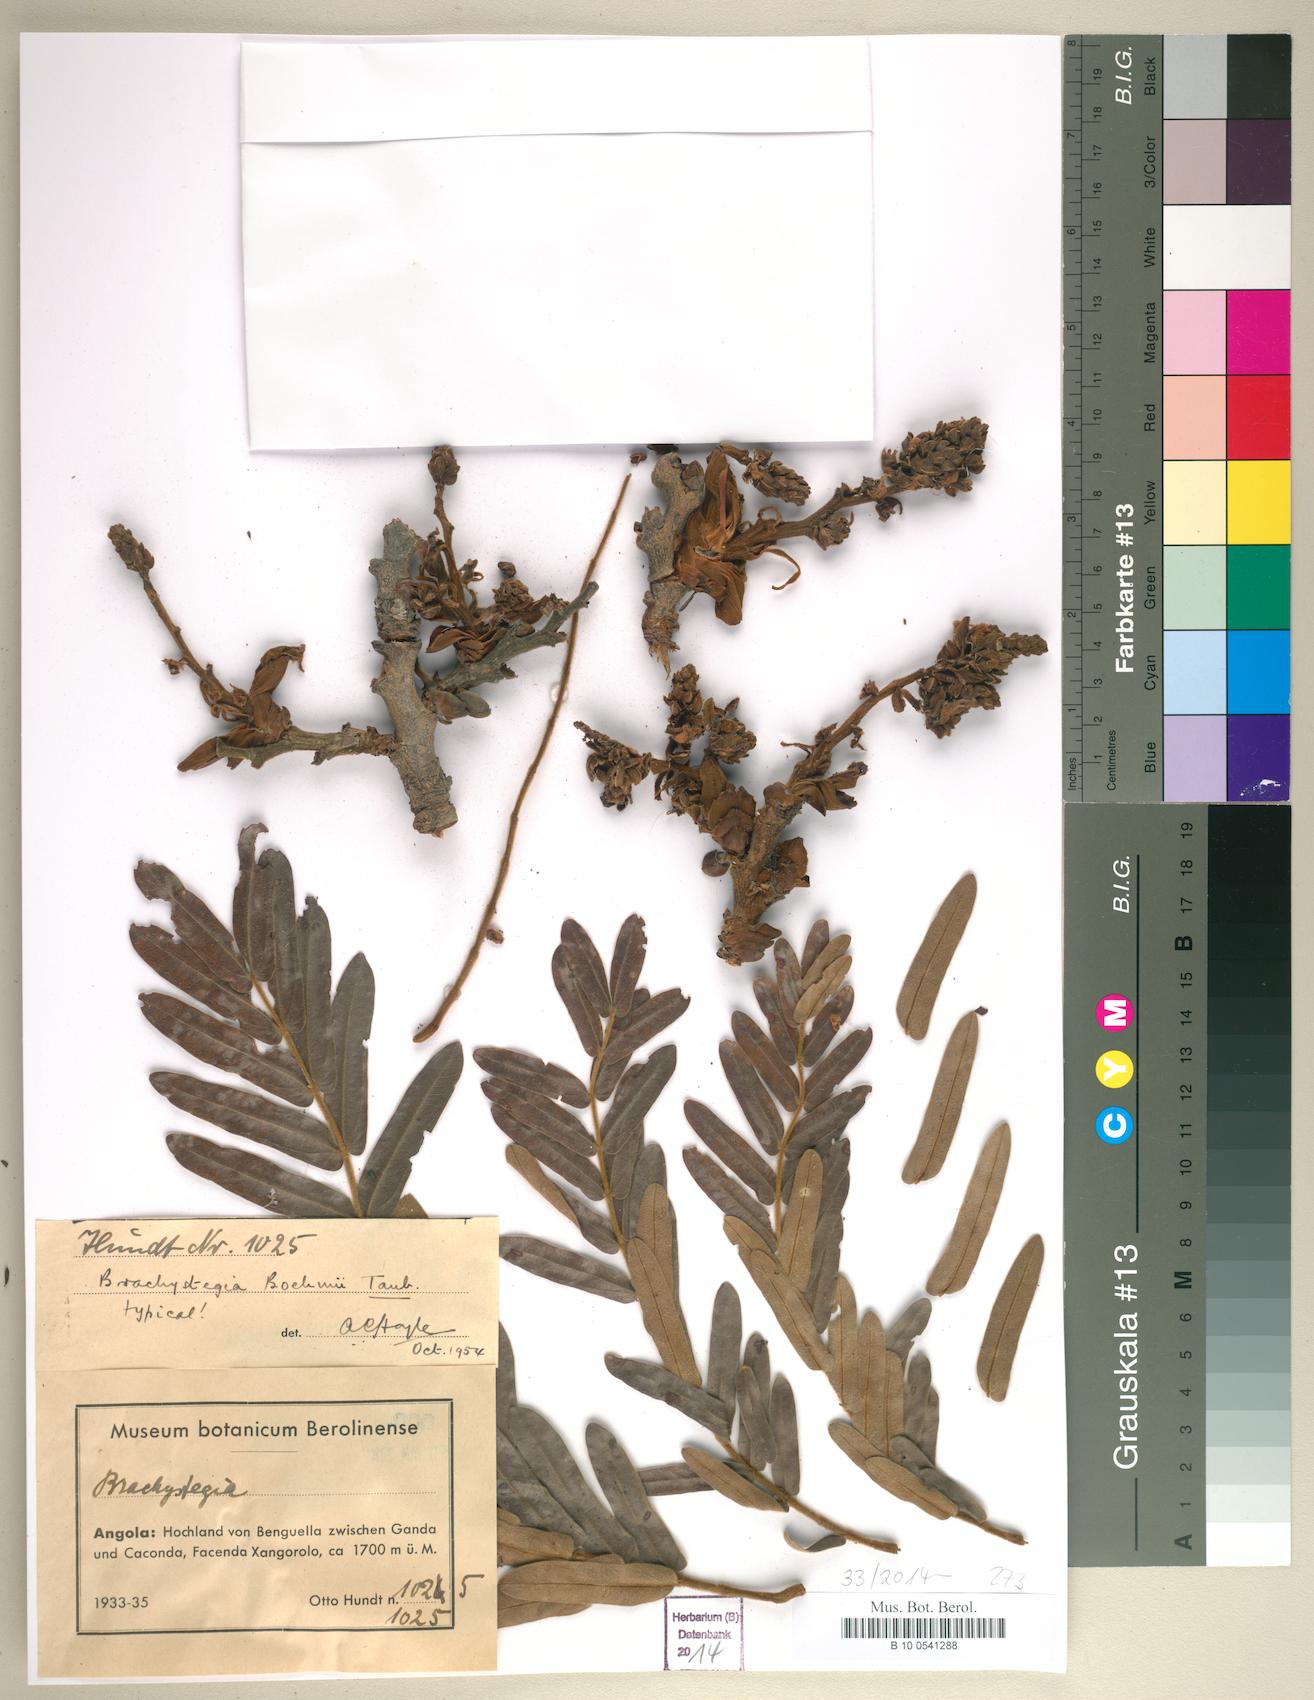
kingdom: Plantae
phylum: Tracheophyta
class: Magnoliopsida
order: Fabales
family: Fabaceae
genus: Brachystegia
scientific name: Brachystegia boehmii
